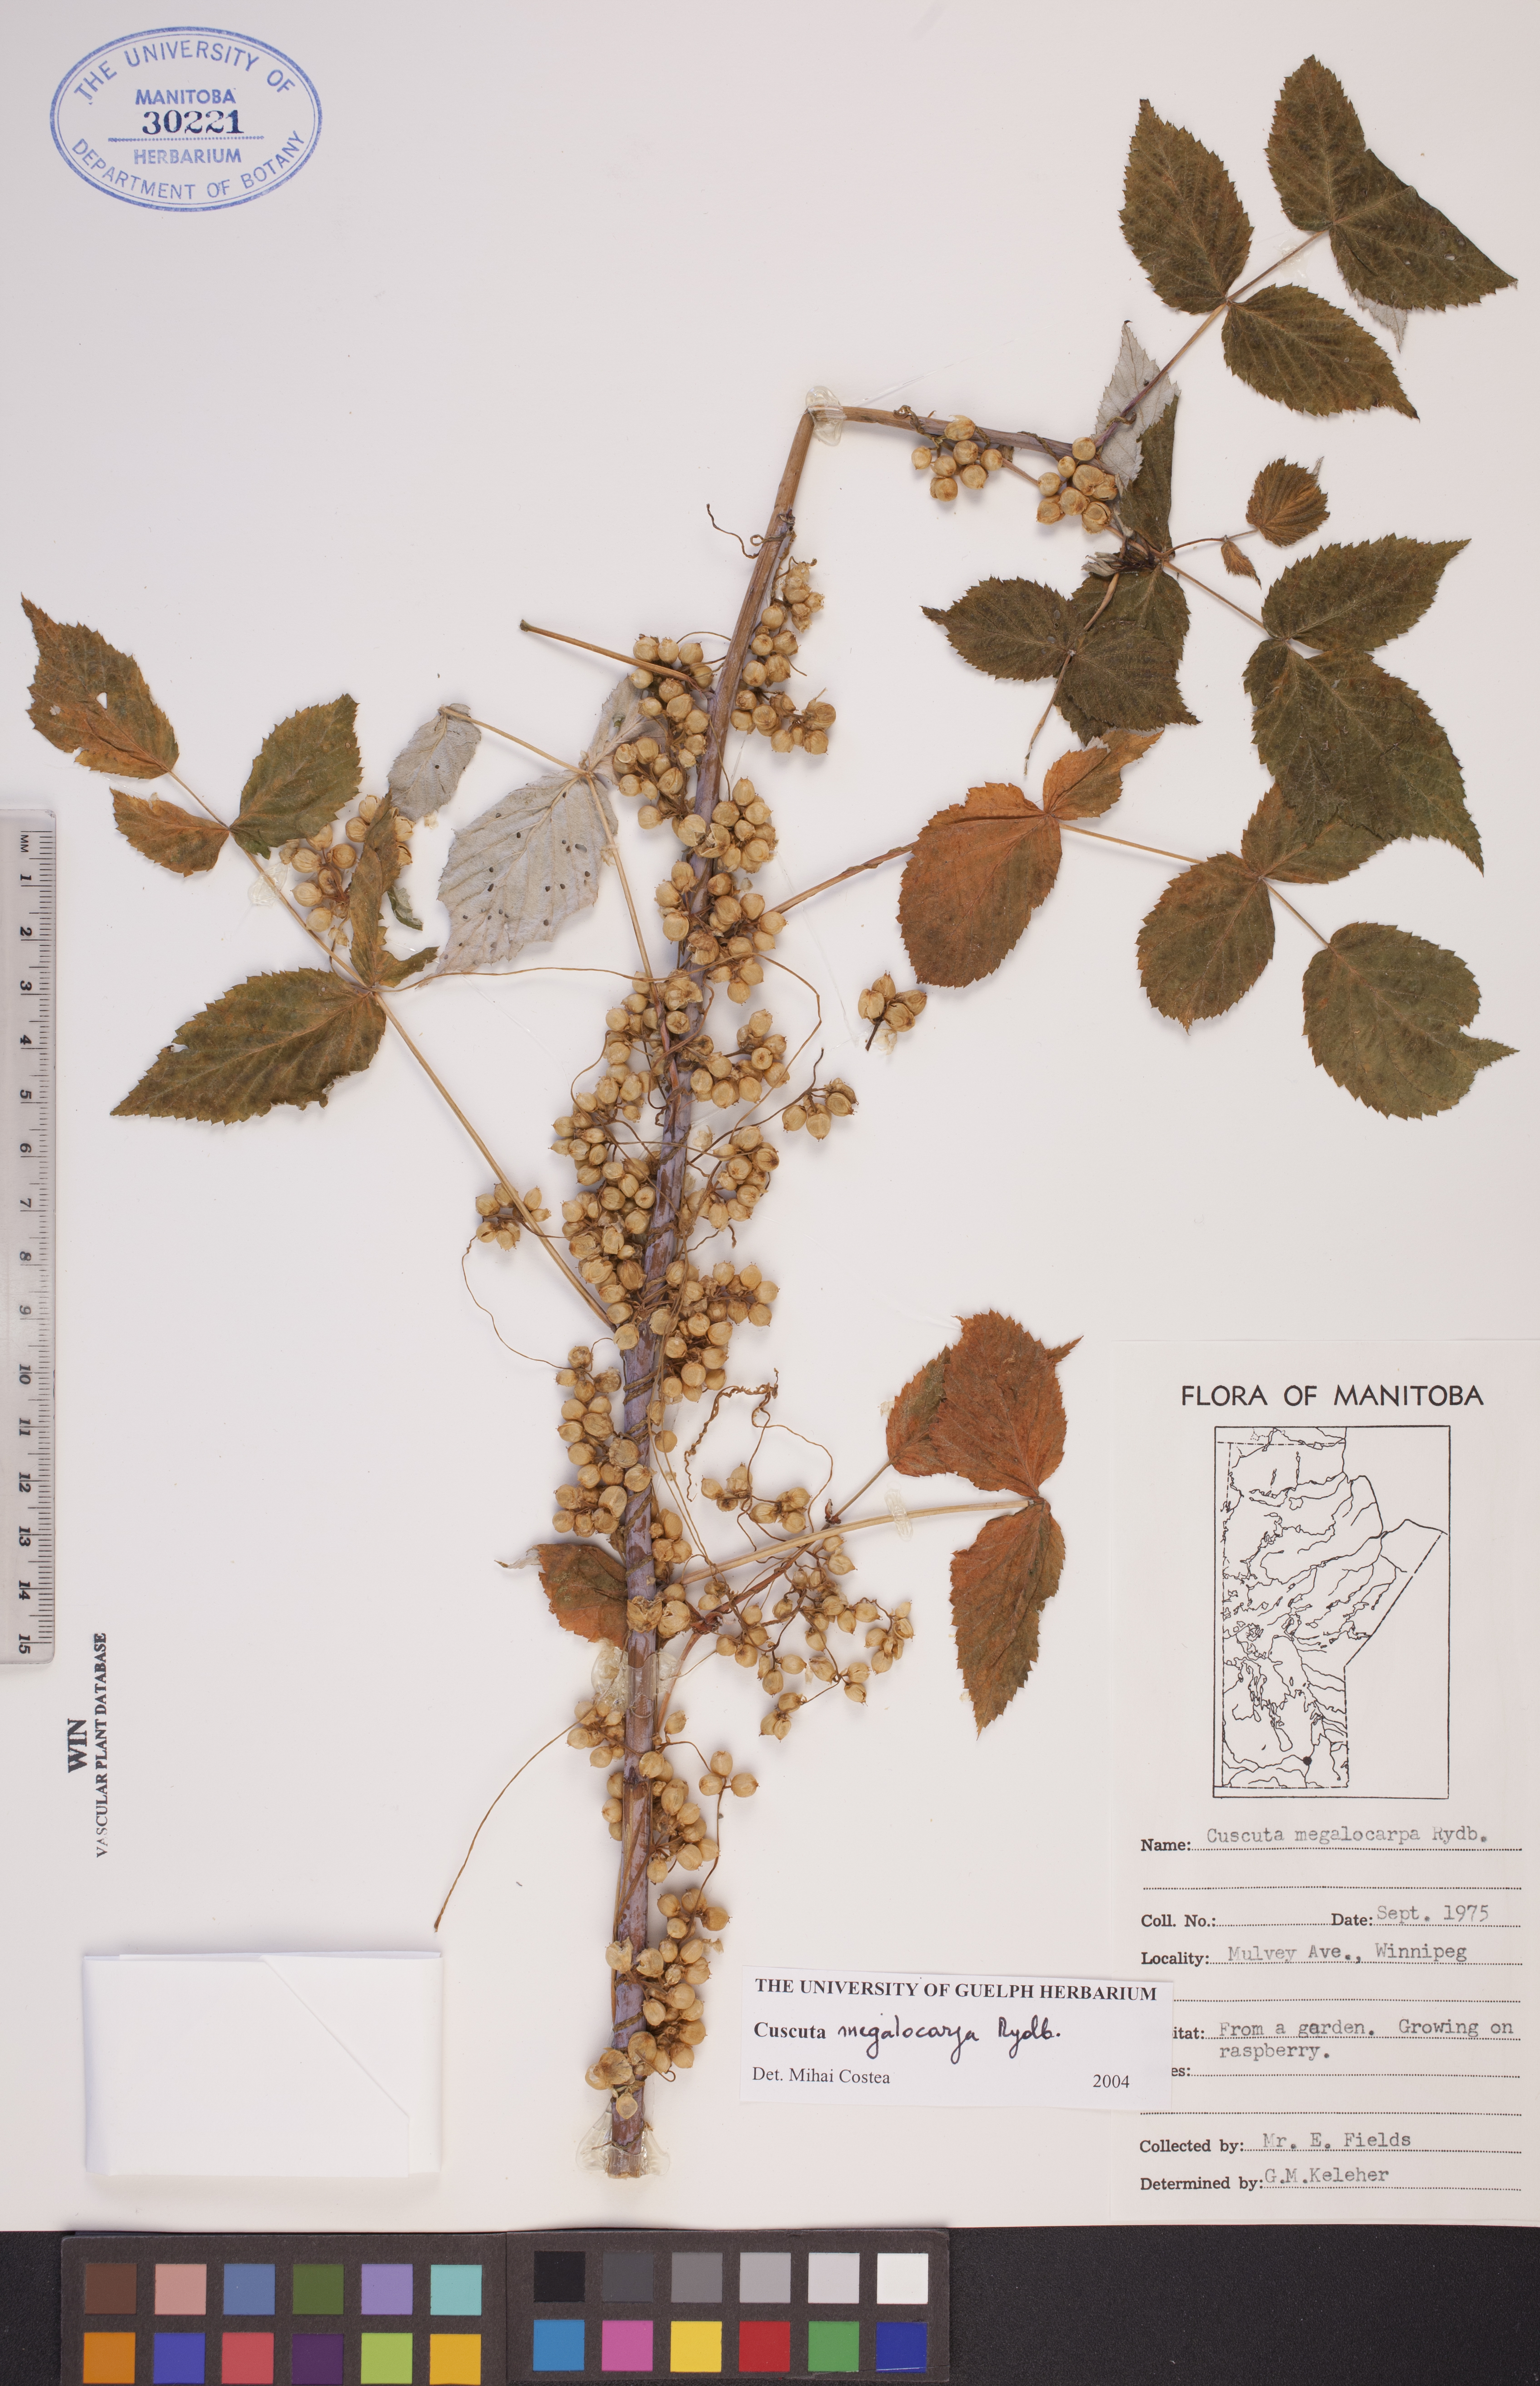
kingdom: Plantae
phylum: Tracheophyta
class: Magnoliopsida
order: Solanales
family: Convolvulaceae
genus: Cuscuta
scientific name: Cuscuta umbrosa
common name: Bigfruit dodder
